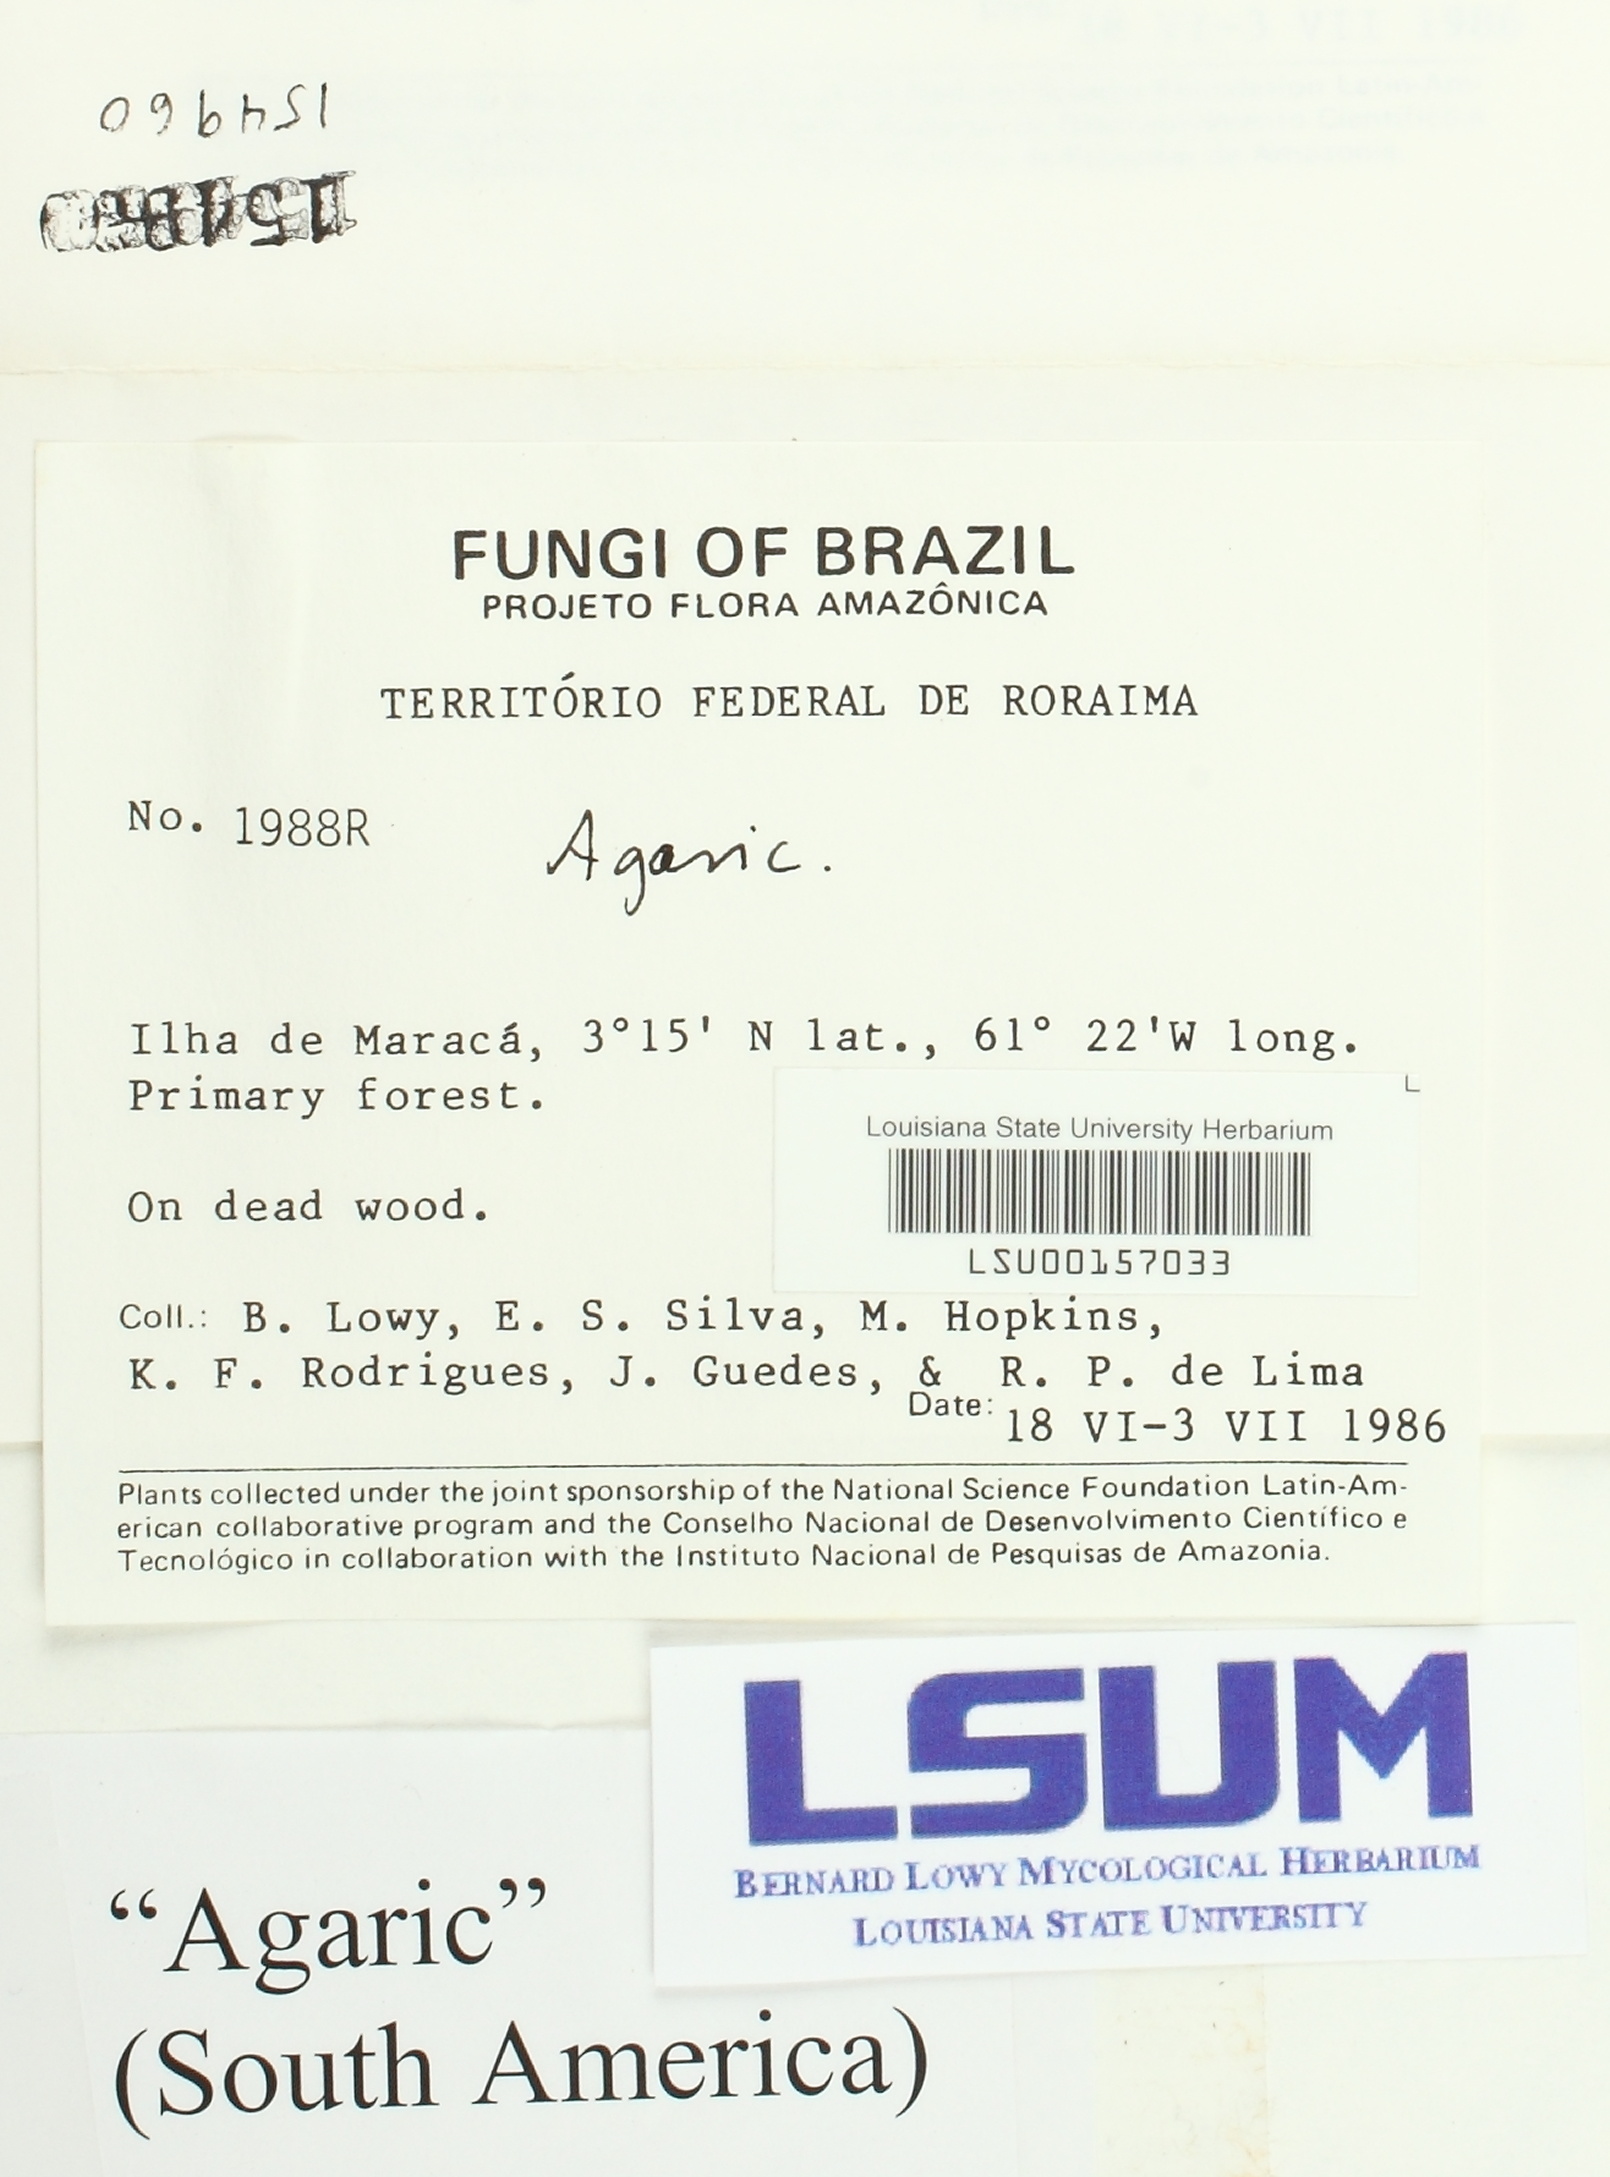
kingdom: Fungi
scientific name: Fungi
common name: Fungi
